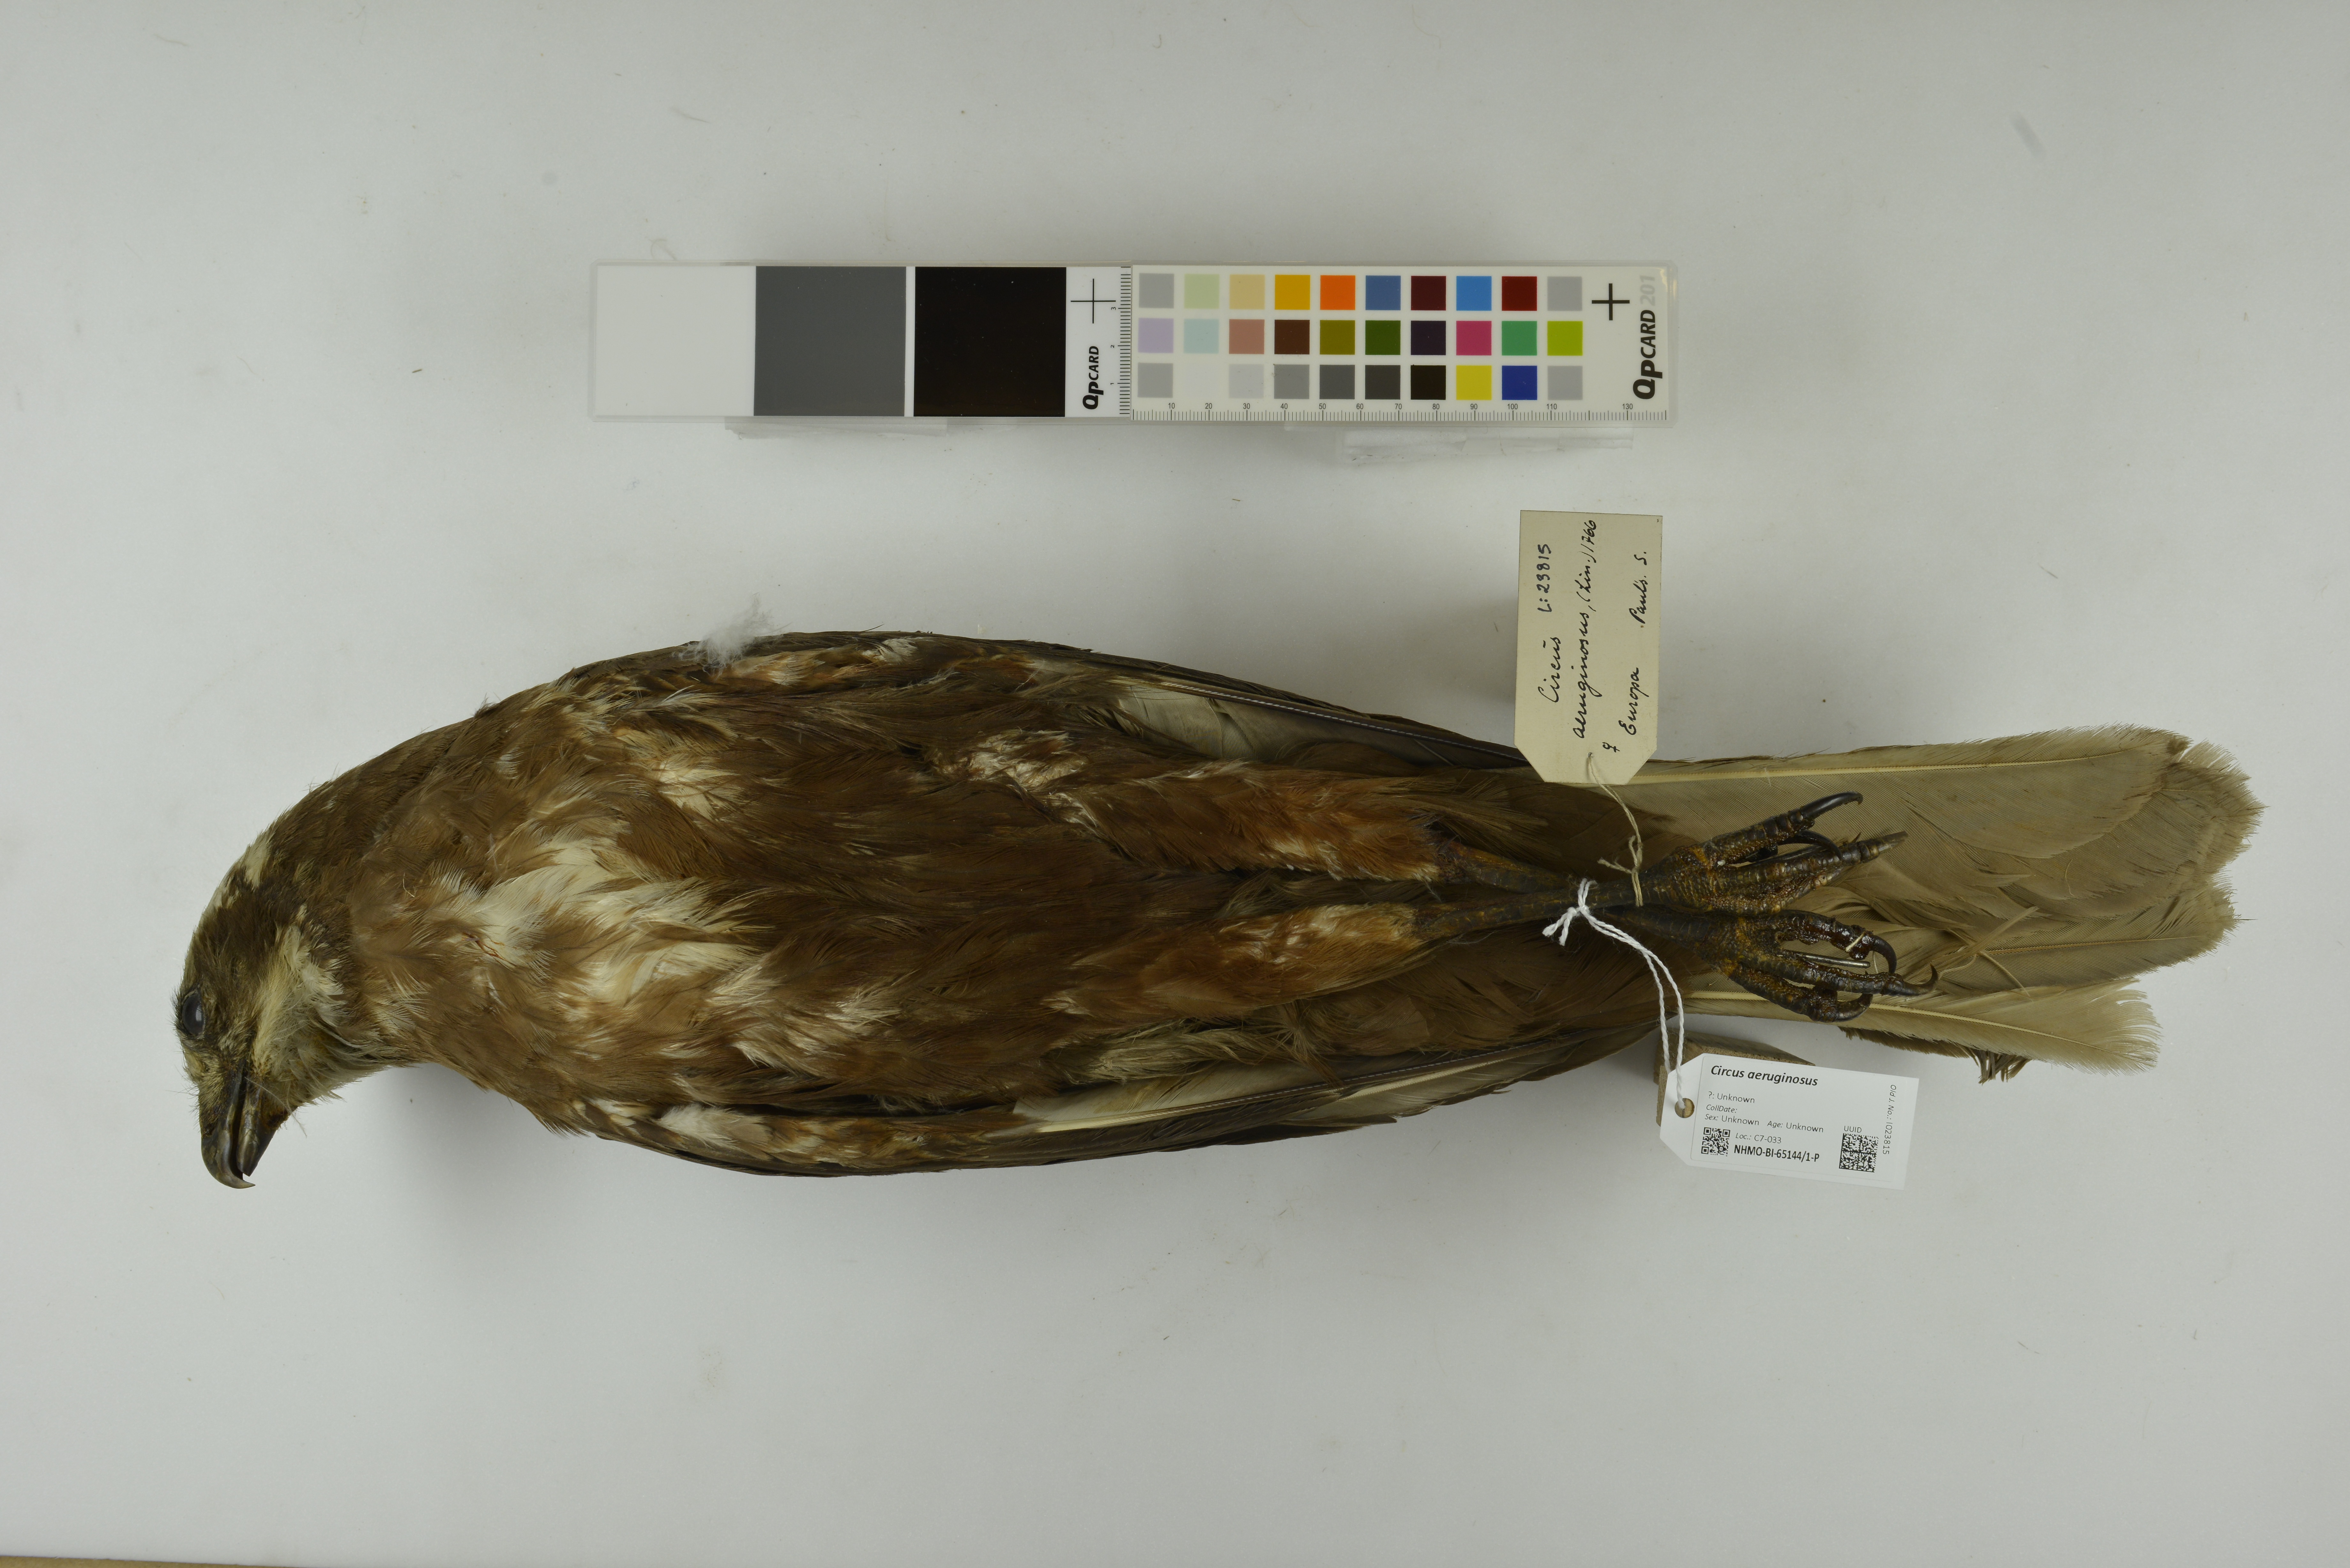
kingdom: Animalia
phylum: Chordata
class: Aves
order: Accipitriformes
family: Accipitridae
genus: Circus
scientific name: Circus aeruginosus
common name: Western marsh harrier
